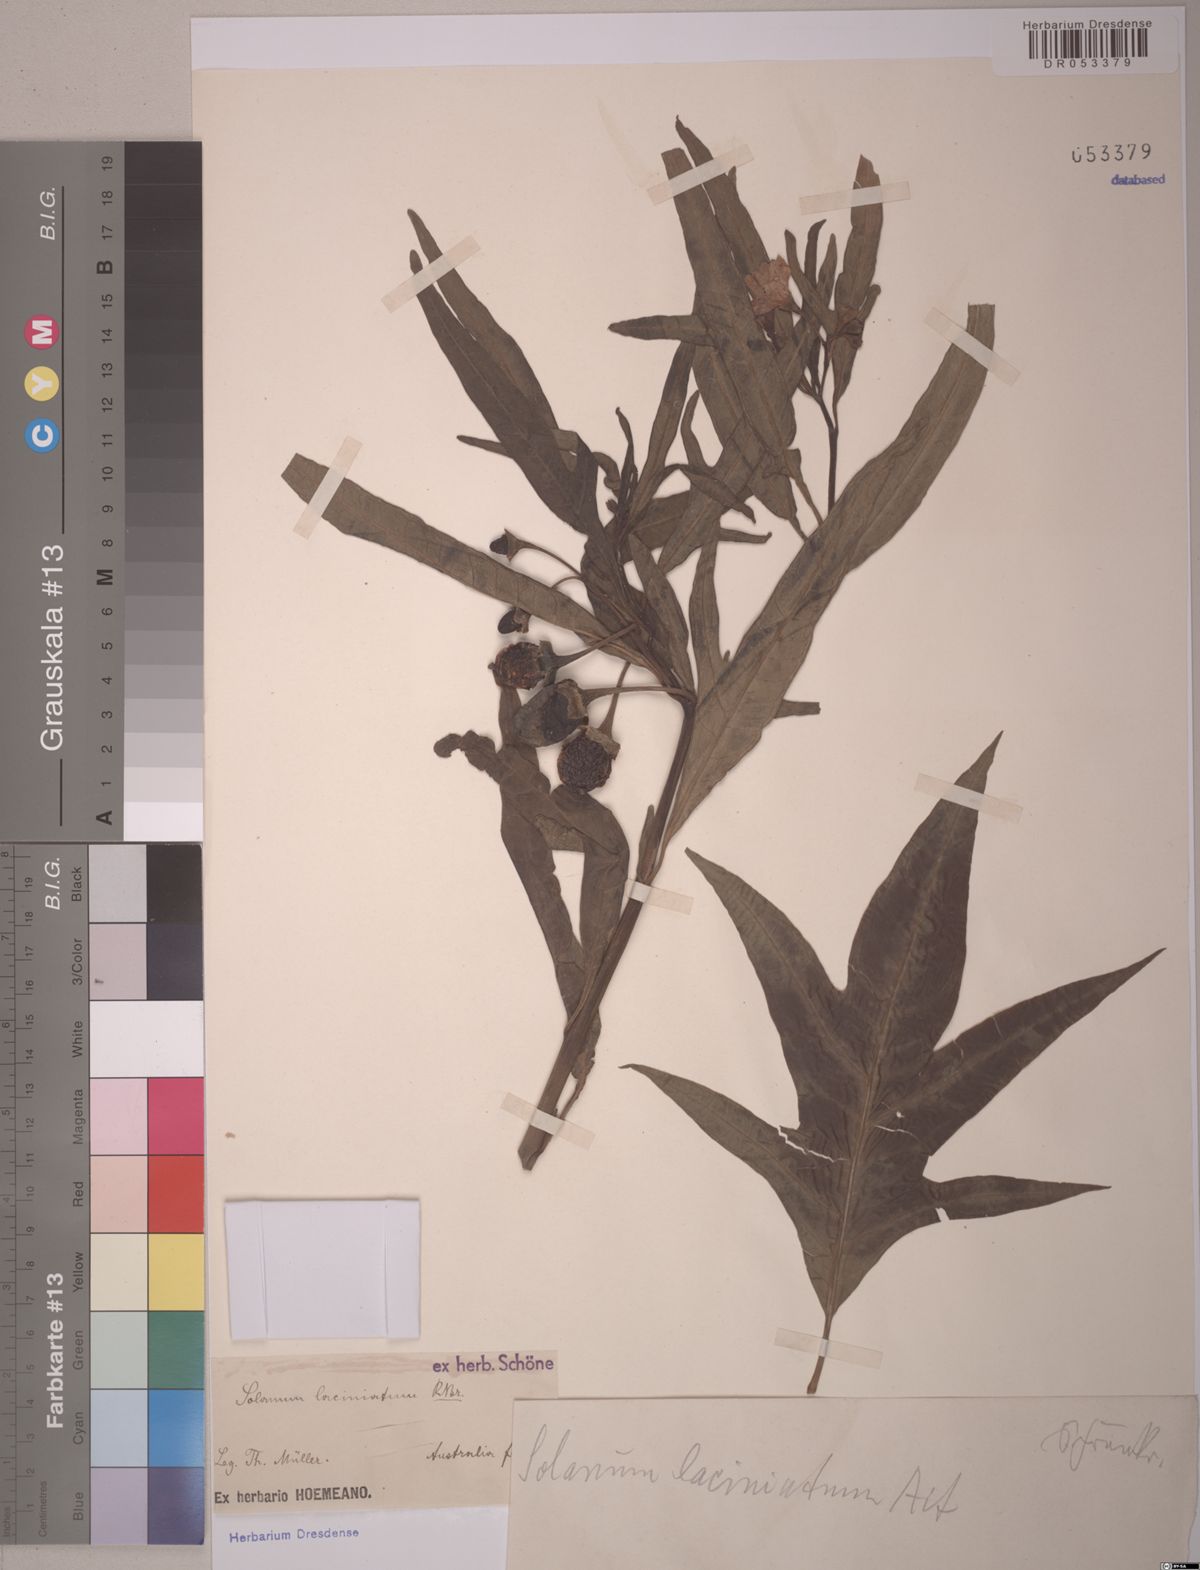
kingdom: Plantae
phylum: Tracheophyta
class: Magnoliopsida
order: Solanales
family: Solanaceae
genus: Solanum
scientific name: Solanum laciniatum
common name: Kangaroo-apple
